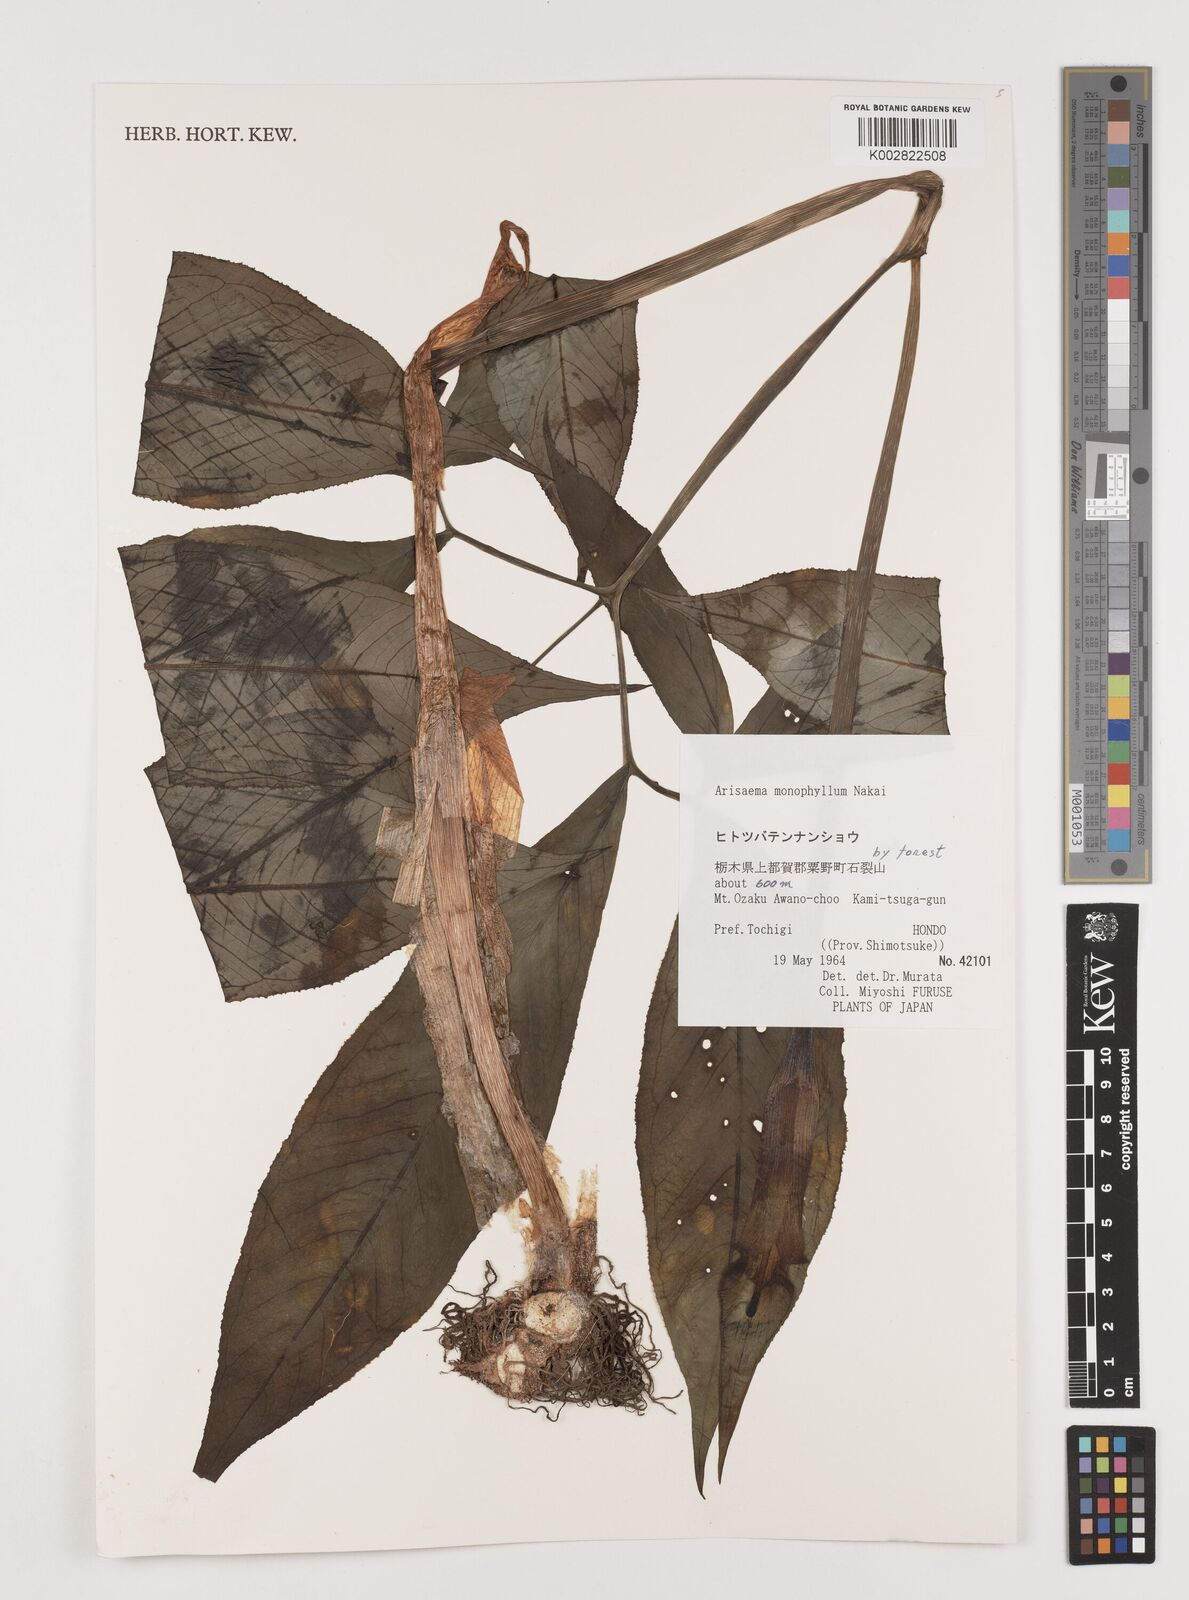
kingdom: Plantae
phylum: Tracheophyta
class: Liliopsida
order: Alismatales
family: Araceae
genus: Arisaema
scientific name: Arisaema monophyllum
